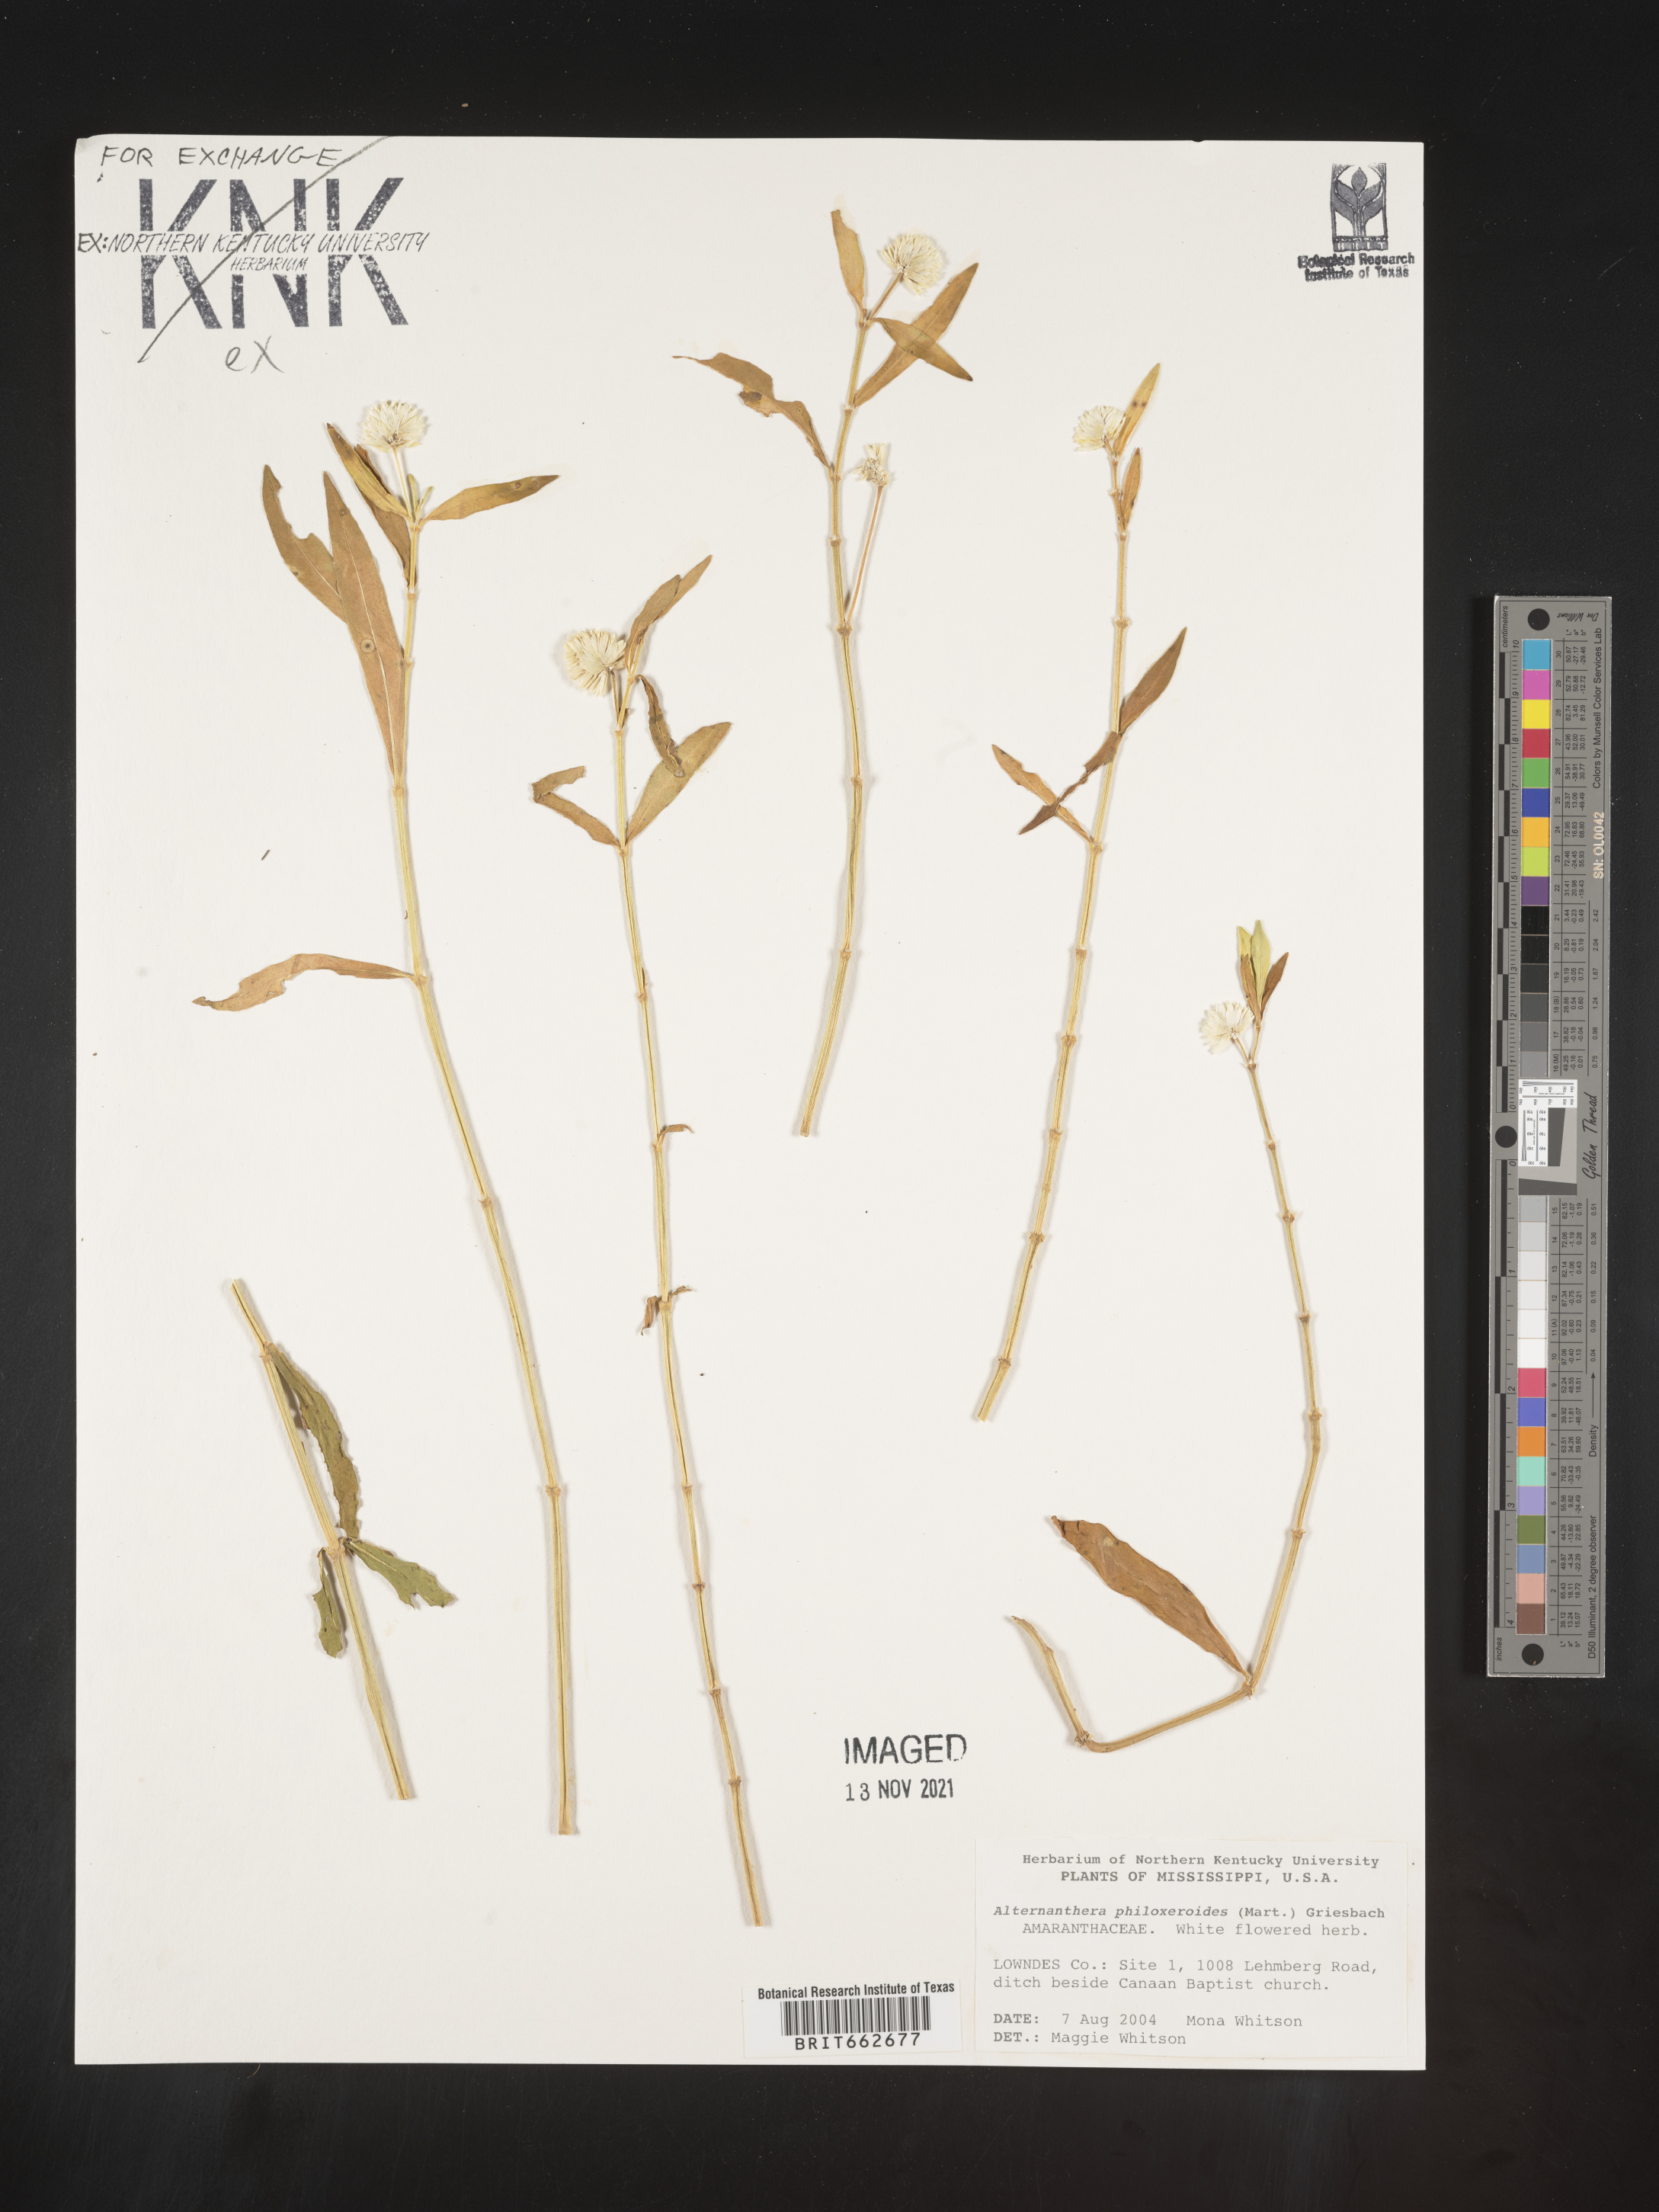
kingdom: Plantae
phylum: Tracheophyta
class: Magnoliopsida
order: Caryophyllales
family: Amaranthaceae
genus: Alternanthera
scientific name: Alternanthera philoxeroides
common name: Alligatorweed
